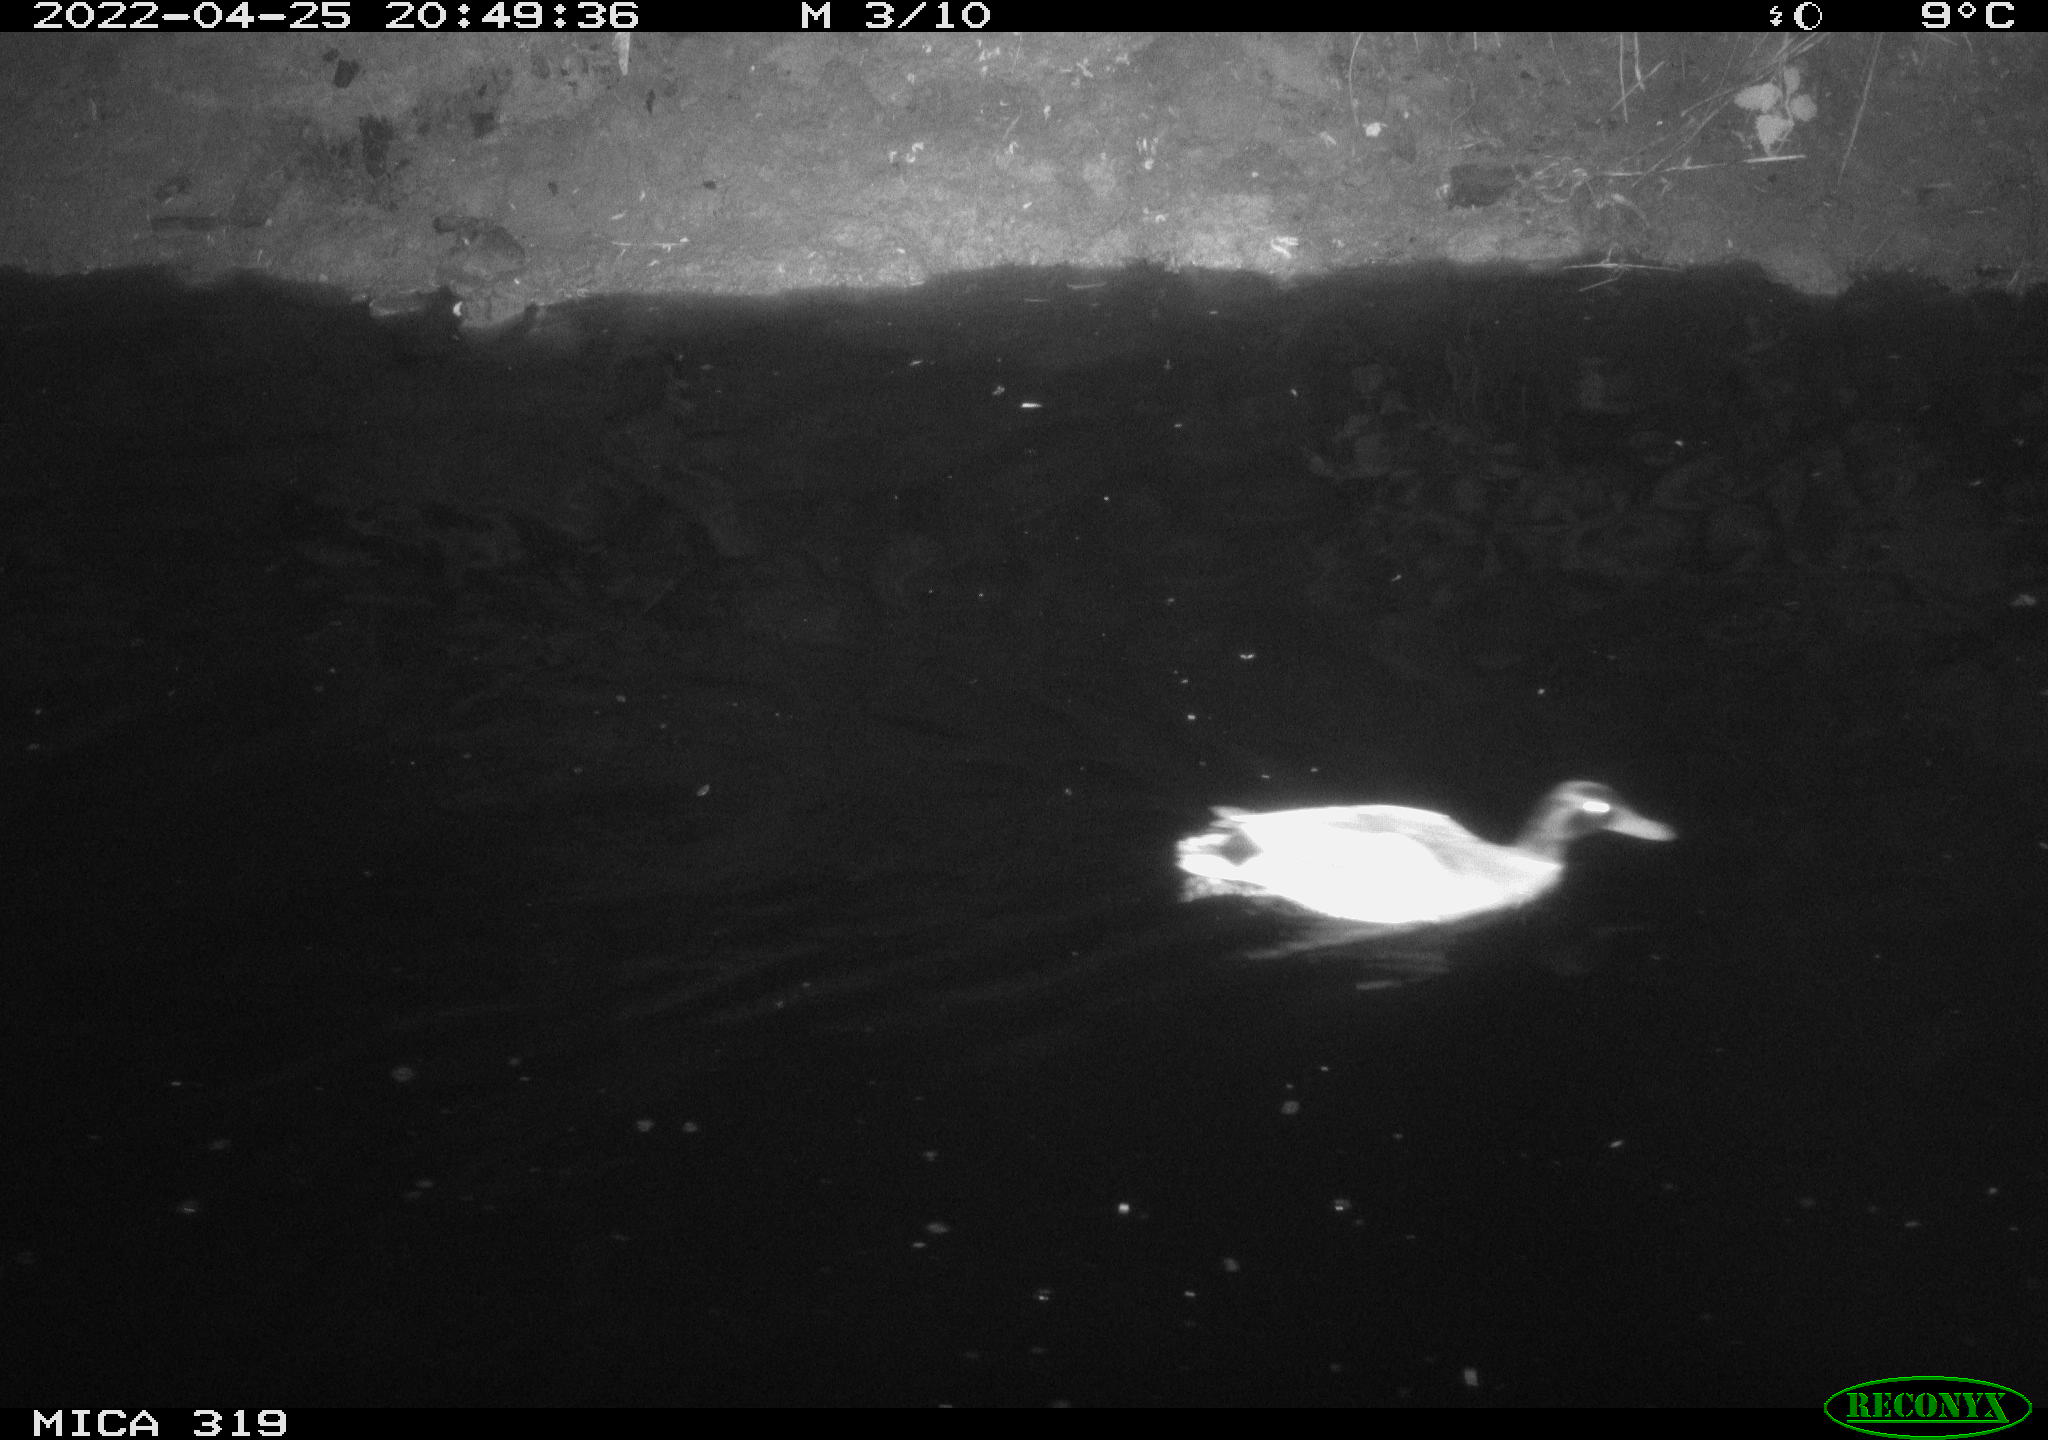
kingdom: Animalia
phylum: Chordata
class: Aves
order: Anseriformes
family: Anatidae
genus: Anas
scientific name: Anas platyrhynchos
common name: Mallard
